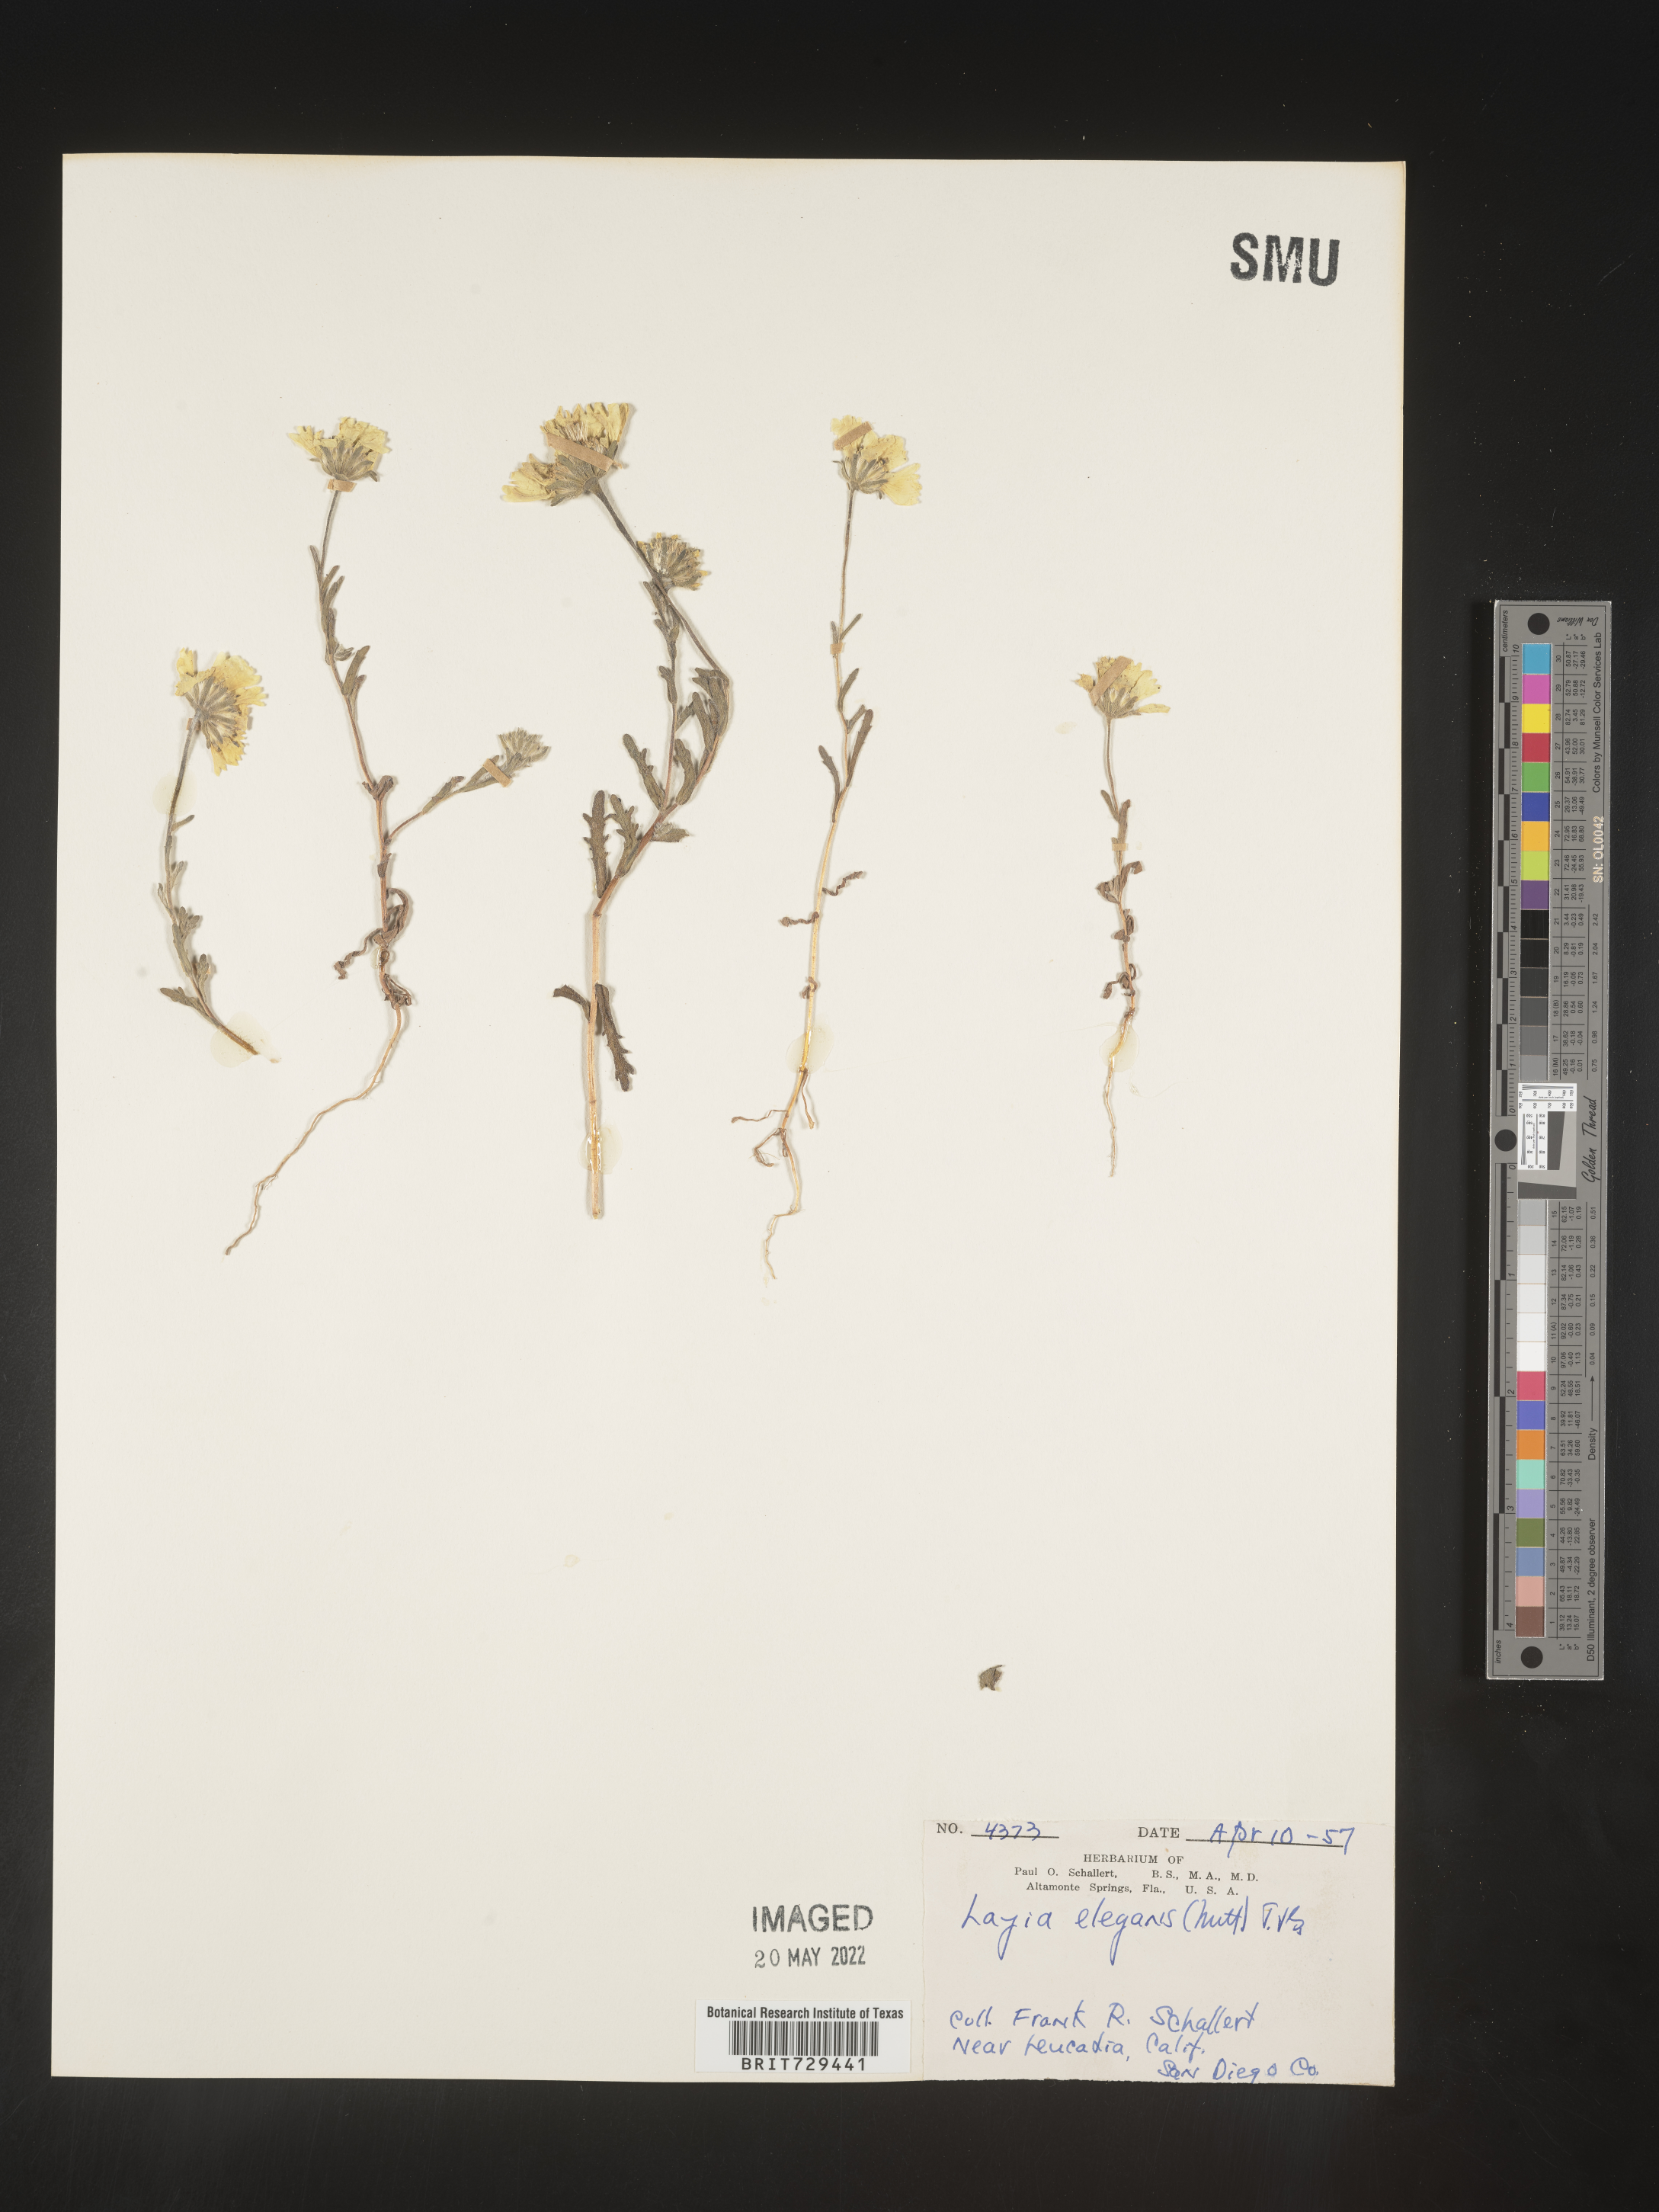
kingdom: Plantae
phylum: Tracheophyta
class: Magnoliopsida
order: Asterales
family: Asteraceae
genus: Layia
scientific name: Layia
